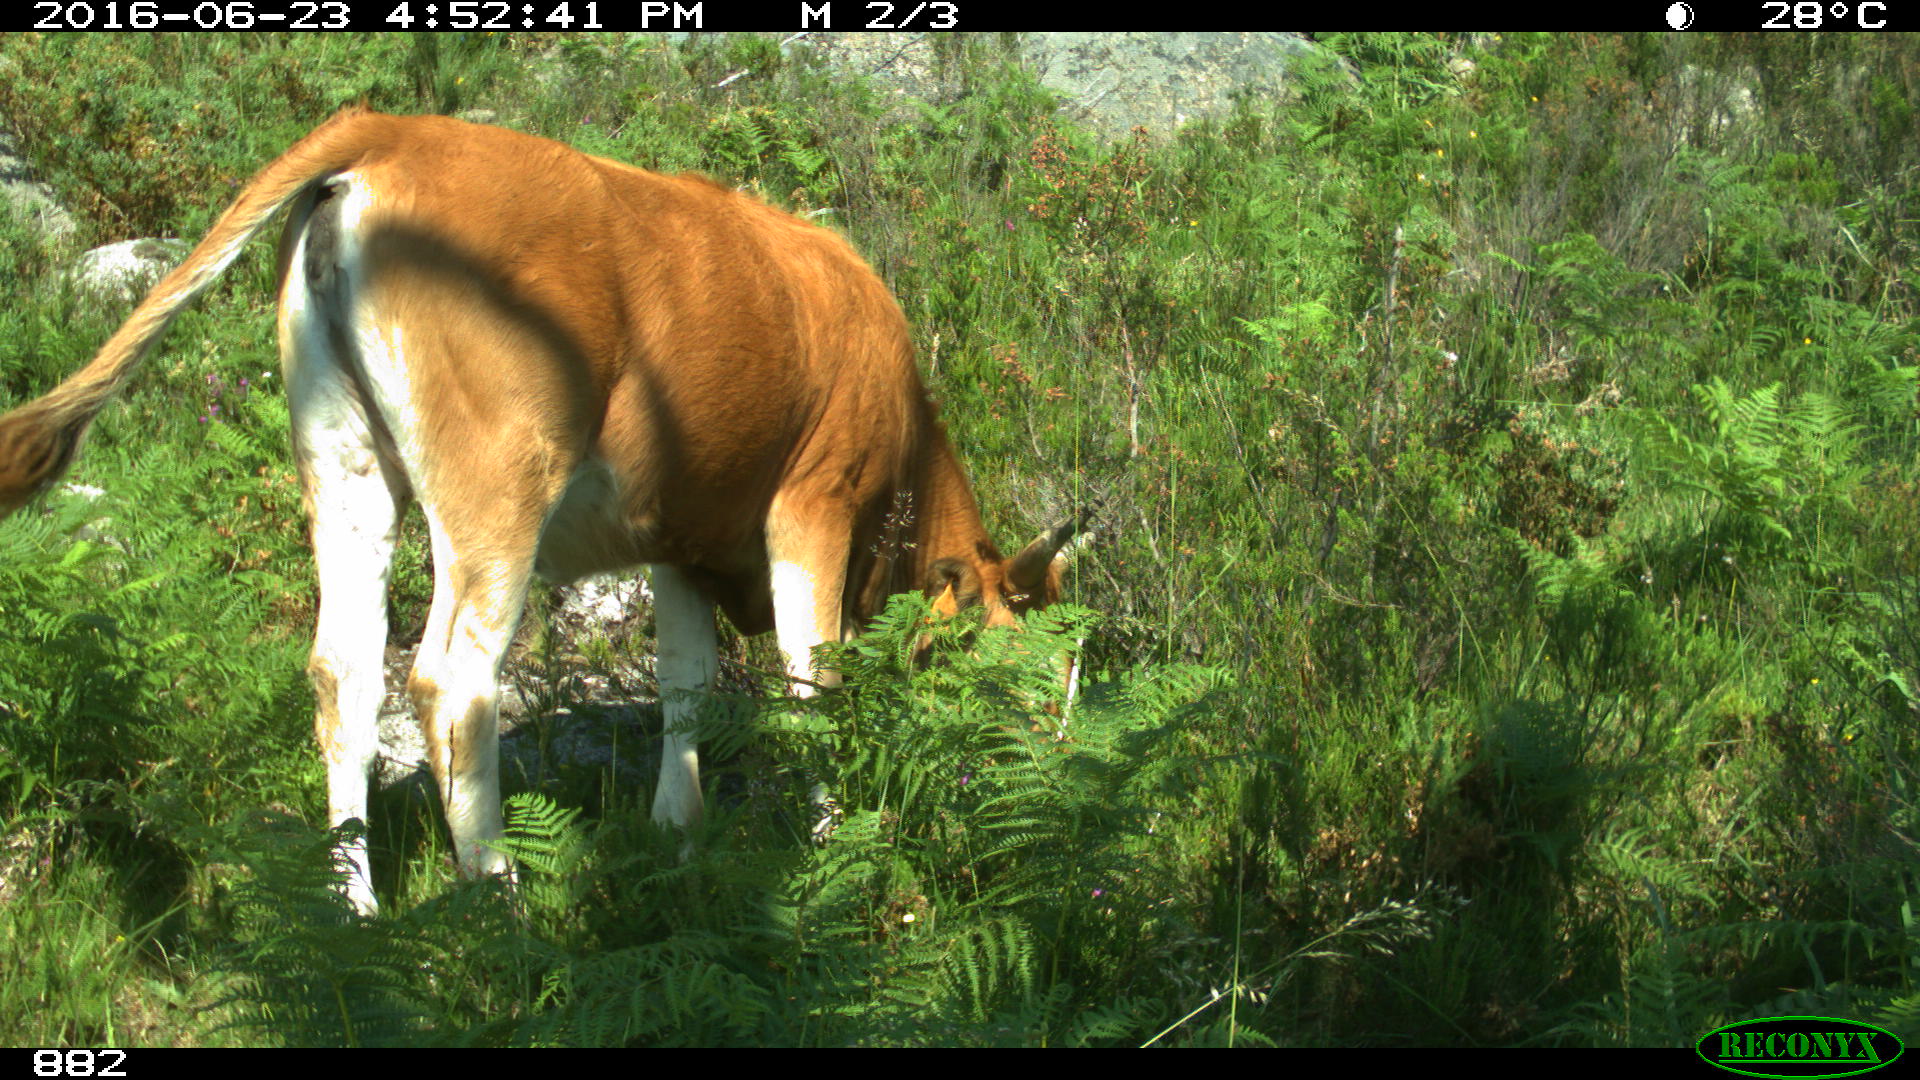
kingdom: Animalia
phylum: Chordata
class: Mammalia
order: Artiodactyla
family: Bovidae
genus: Bos
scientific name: Bos taurus
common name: Domesticated cattle
